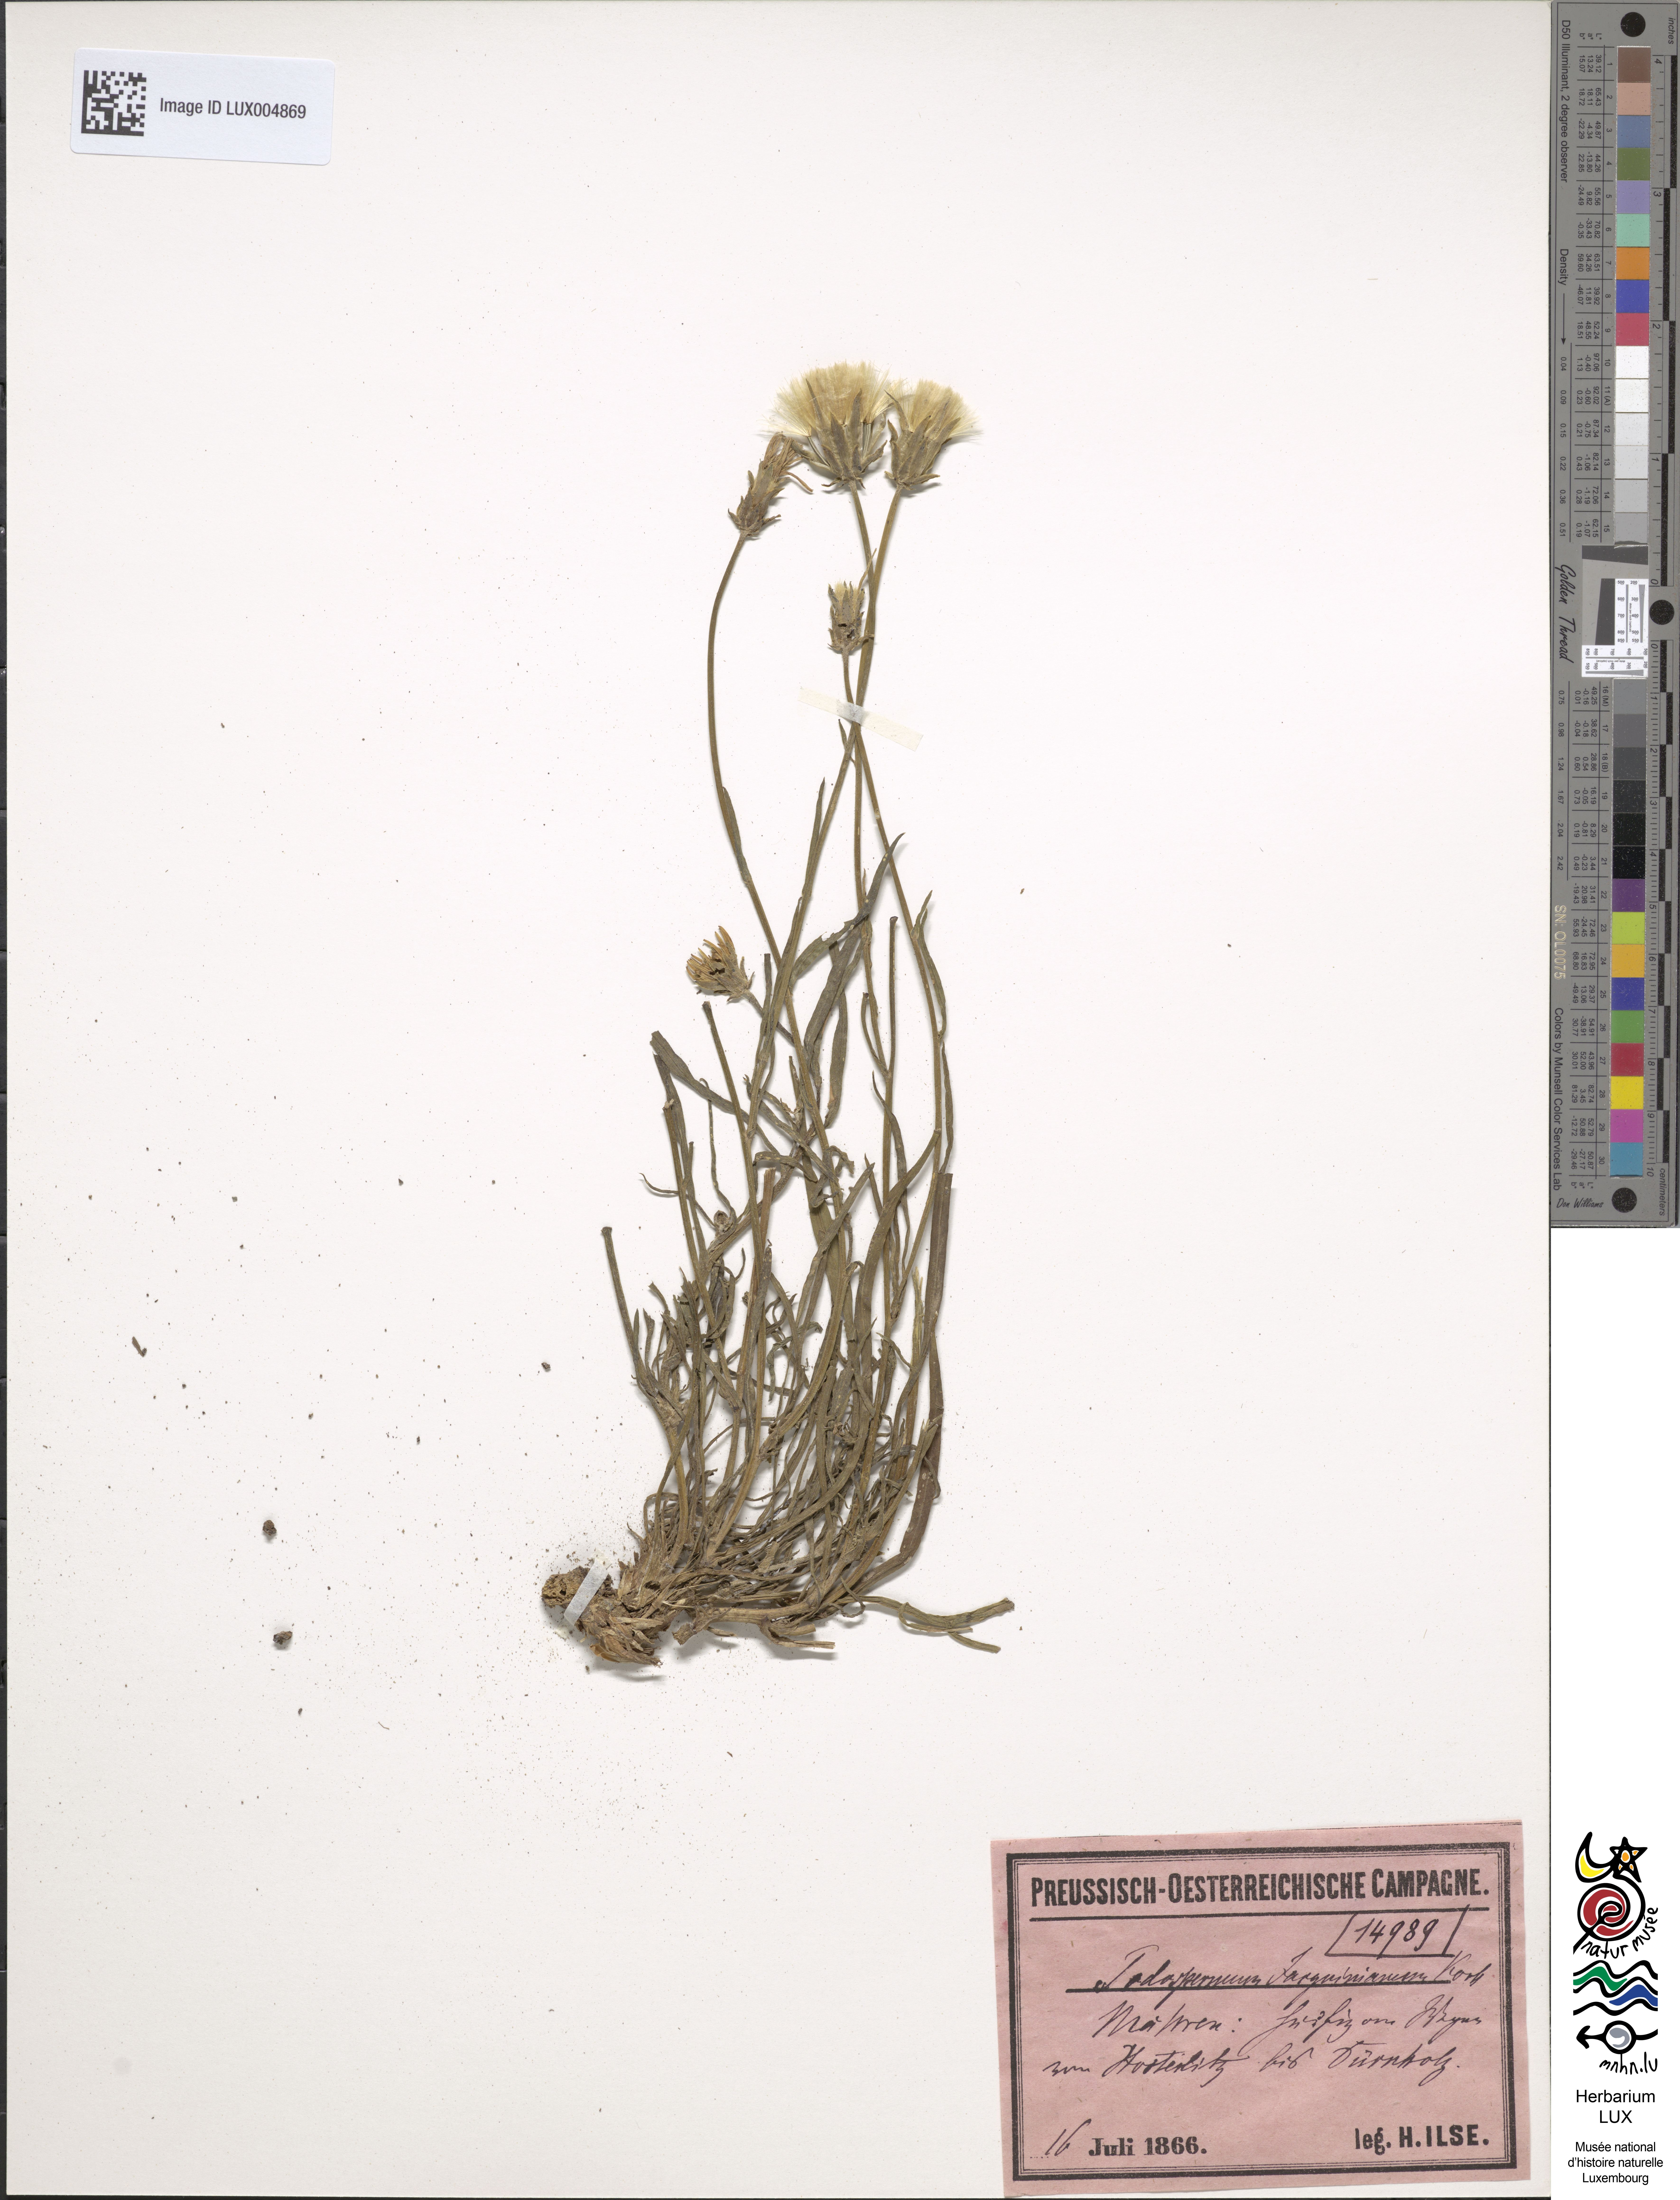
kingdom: Plantae
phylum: Tracheophyta
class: Magnoliopsida
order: Asterales
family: Asteraceae
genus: Scorzonera
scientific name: Scorzonera cana
